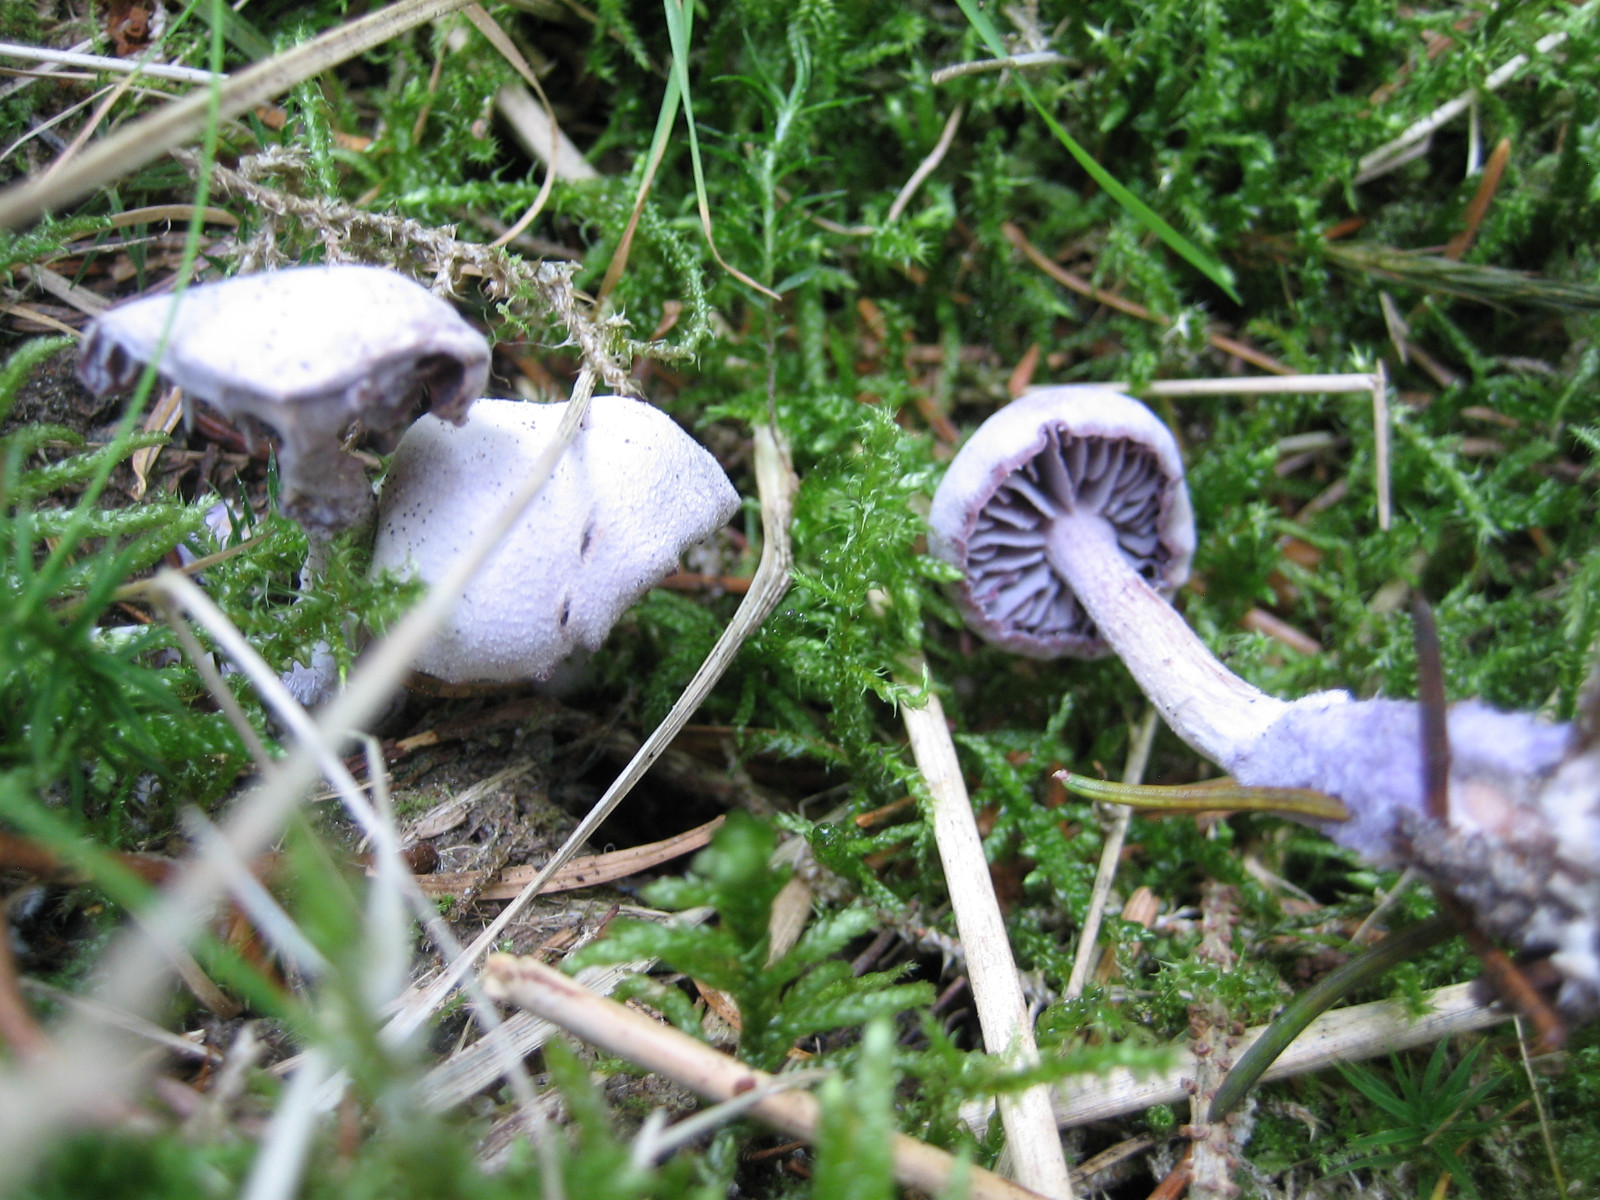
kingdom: Fungi
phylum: Basidiomycota
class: Agaricomycetes
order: Agaricales
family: Hydnangiaceae
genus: Laccaria
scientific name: Laccaria amethystina
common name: violet ametysthat
